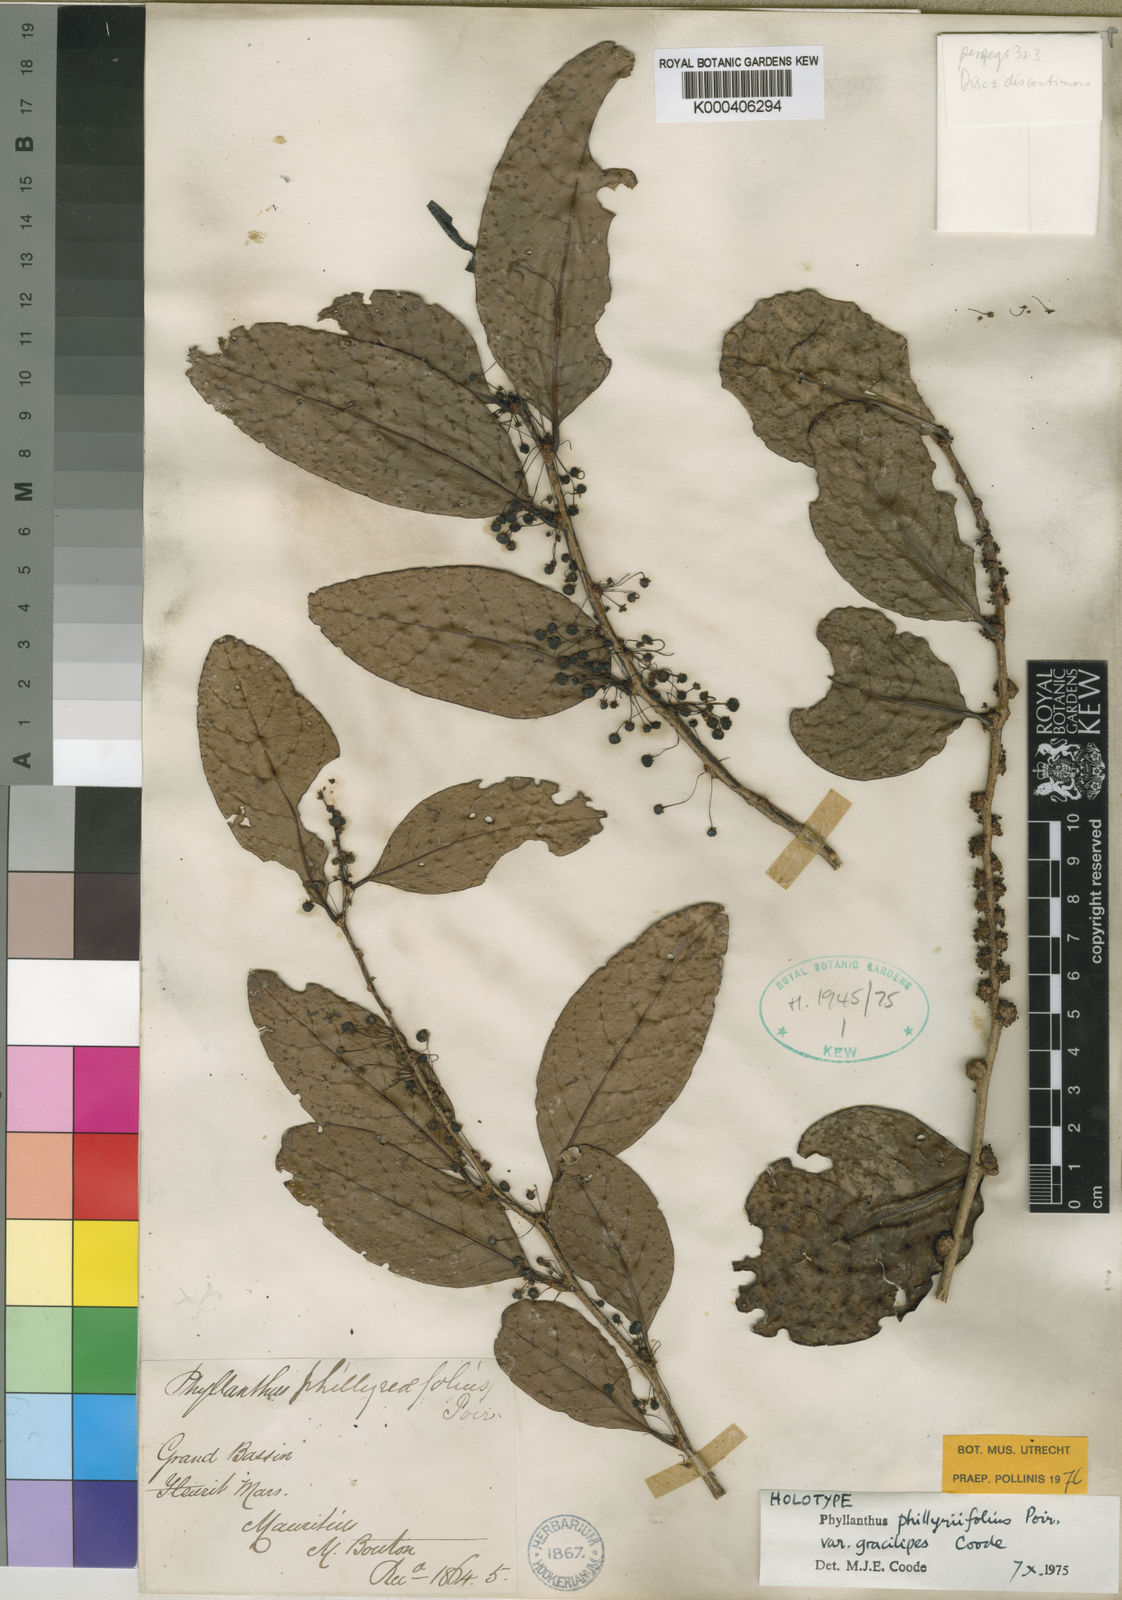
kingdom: Plantae
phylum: Tracheophyta
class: Magnoliopsida
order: Malpighiales
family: Phyllanthaceae
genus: Phyllanthus
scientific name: Phyllanthus phillyreifolius
